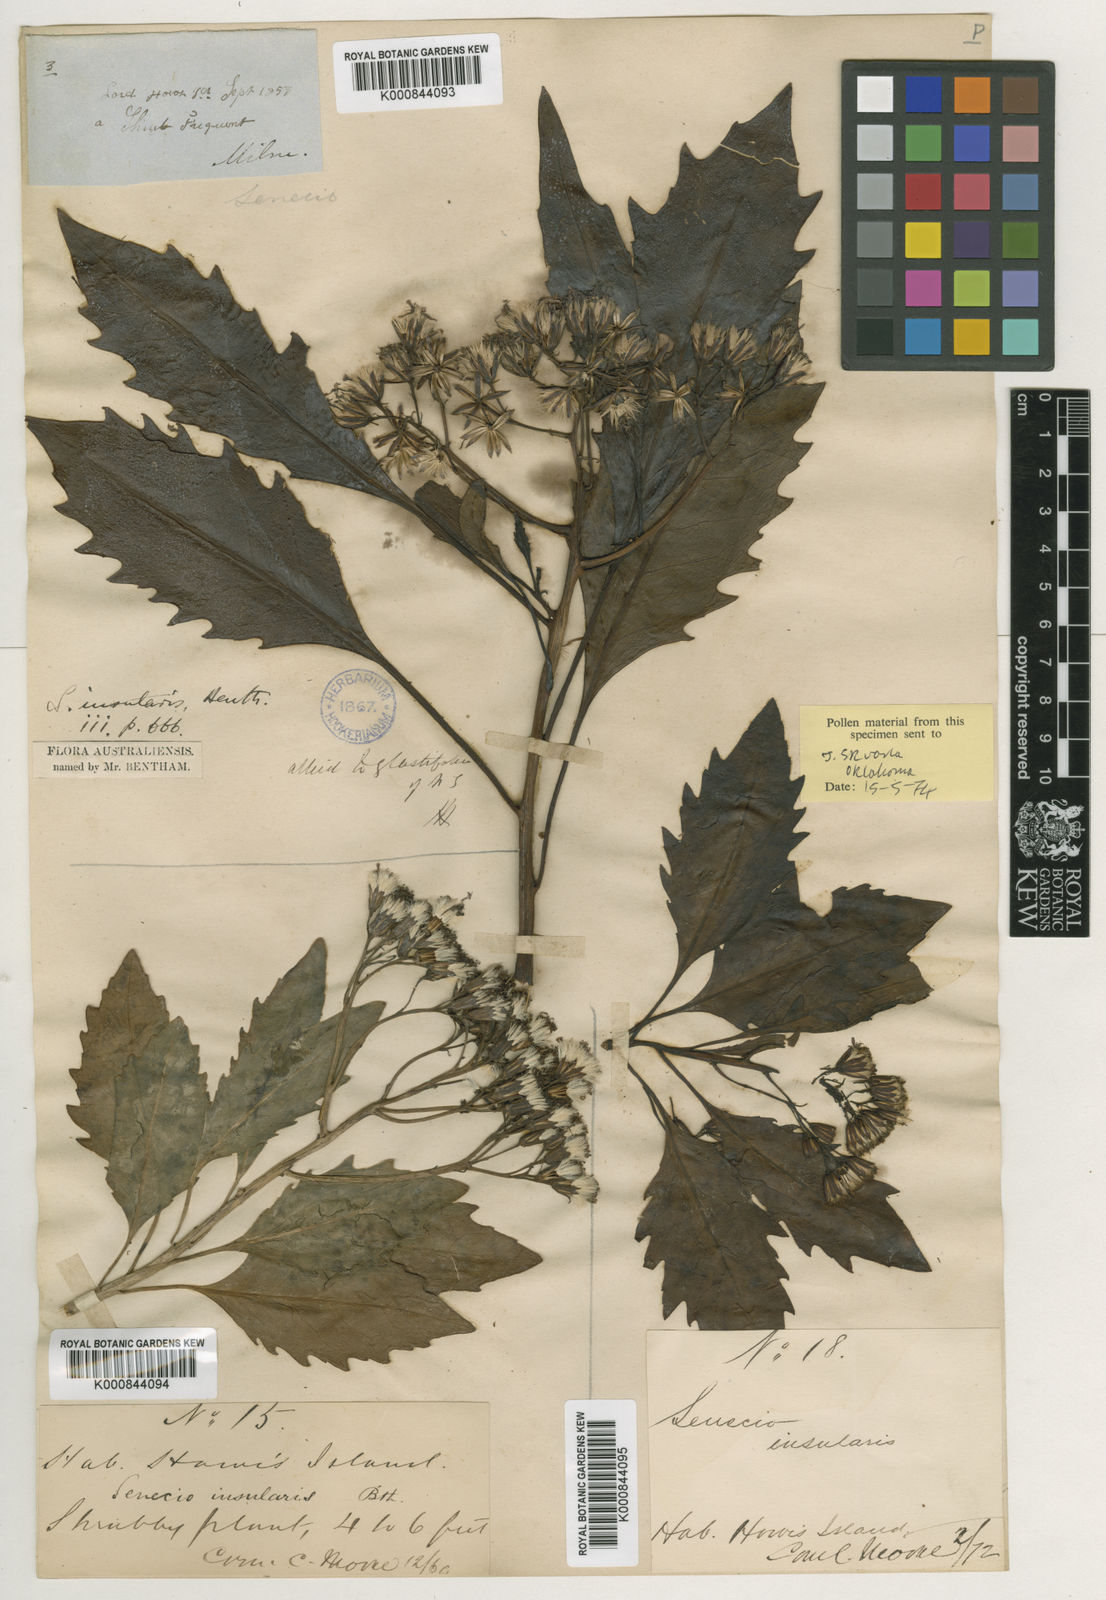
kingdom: Plantae
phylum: Tracheophyta
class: Magnoliopsida
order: Asterales
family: Asteraceae
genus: Lordhowea
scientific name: Lordhowea insularis
